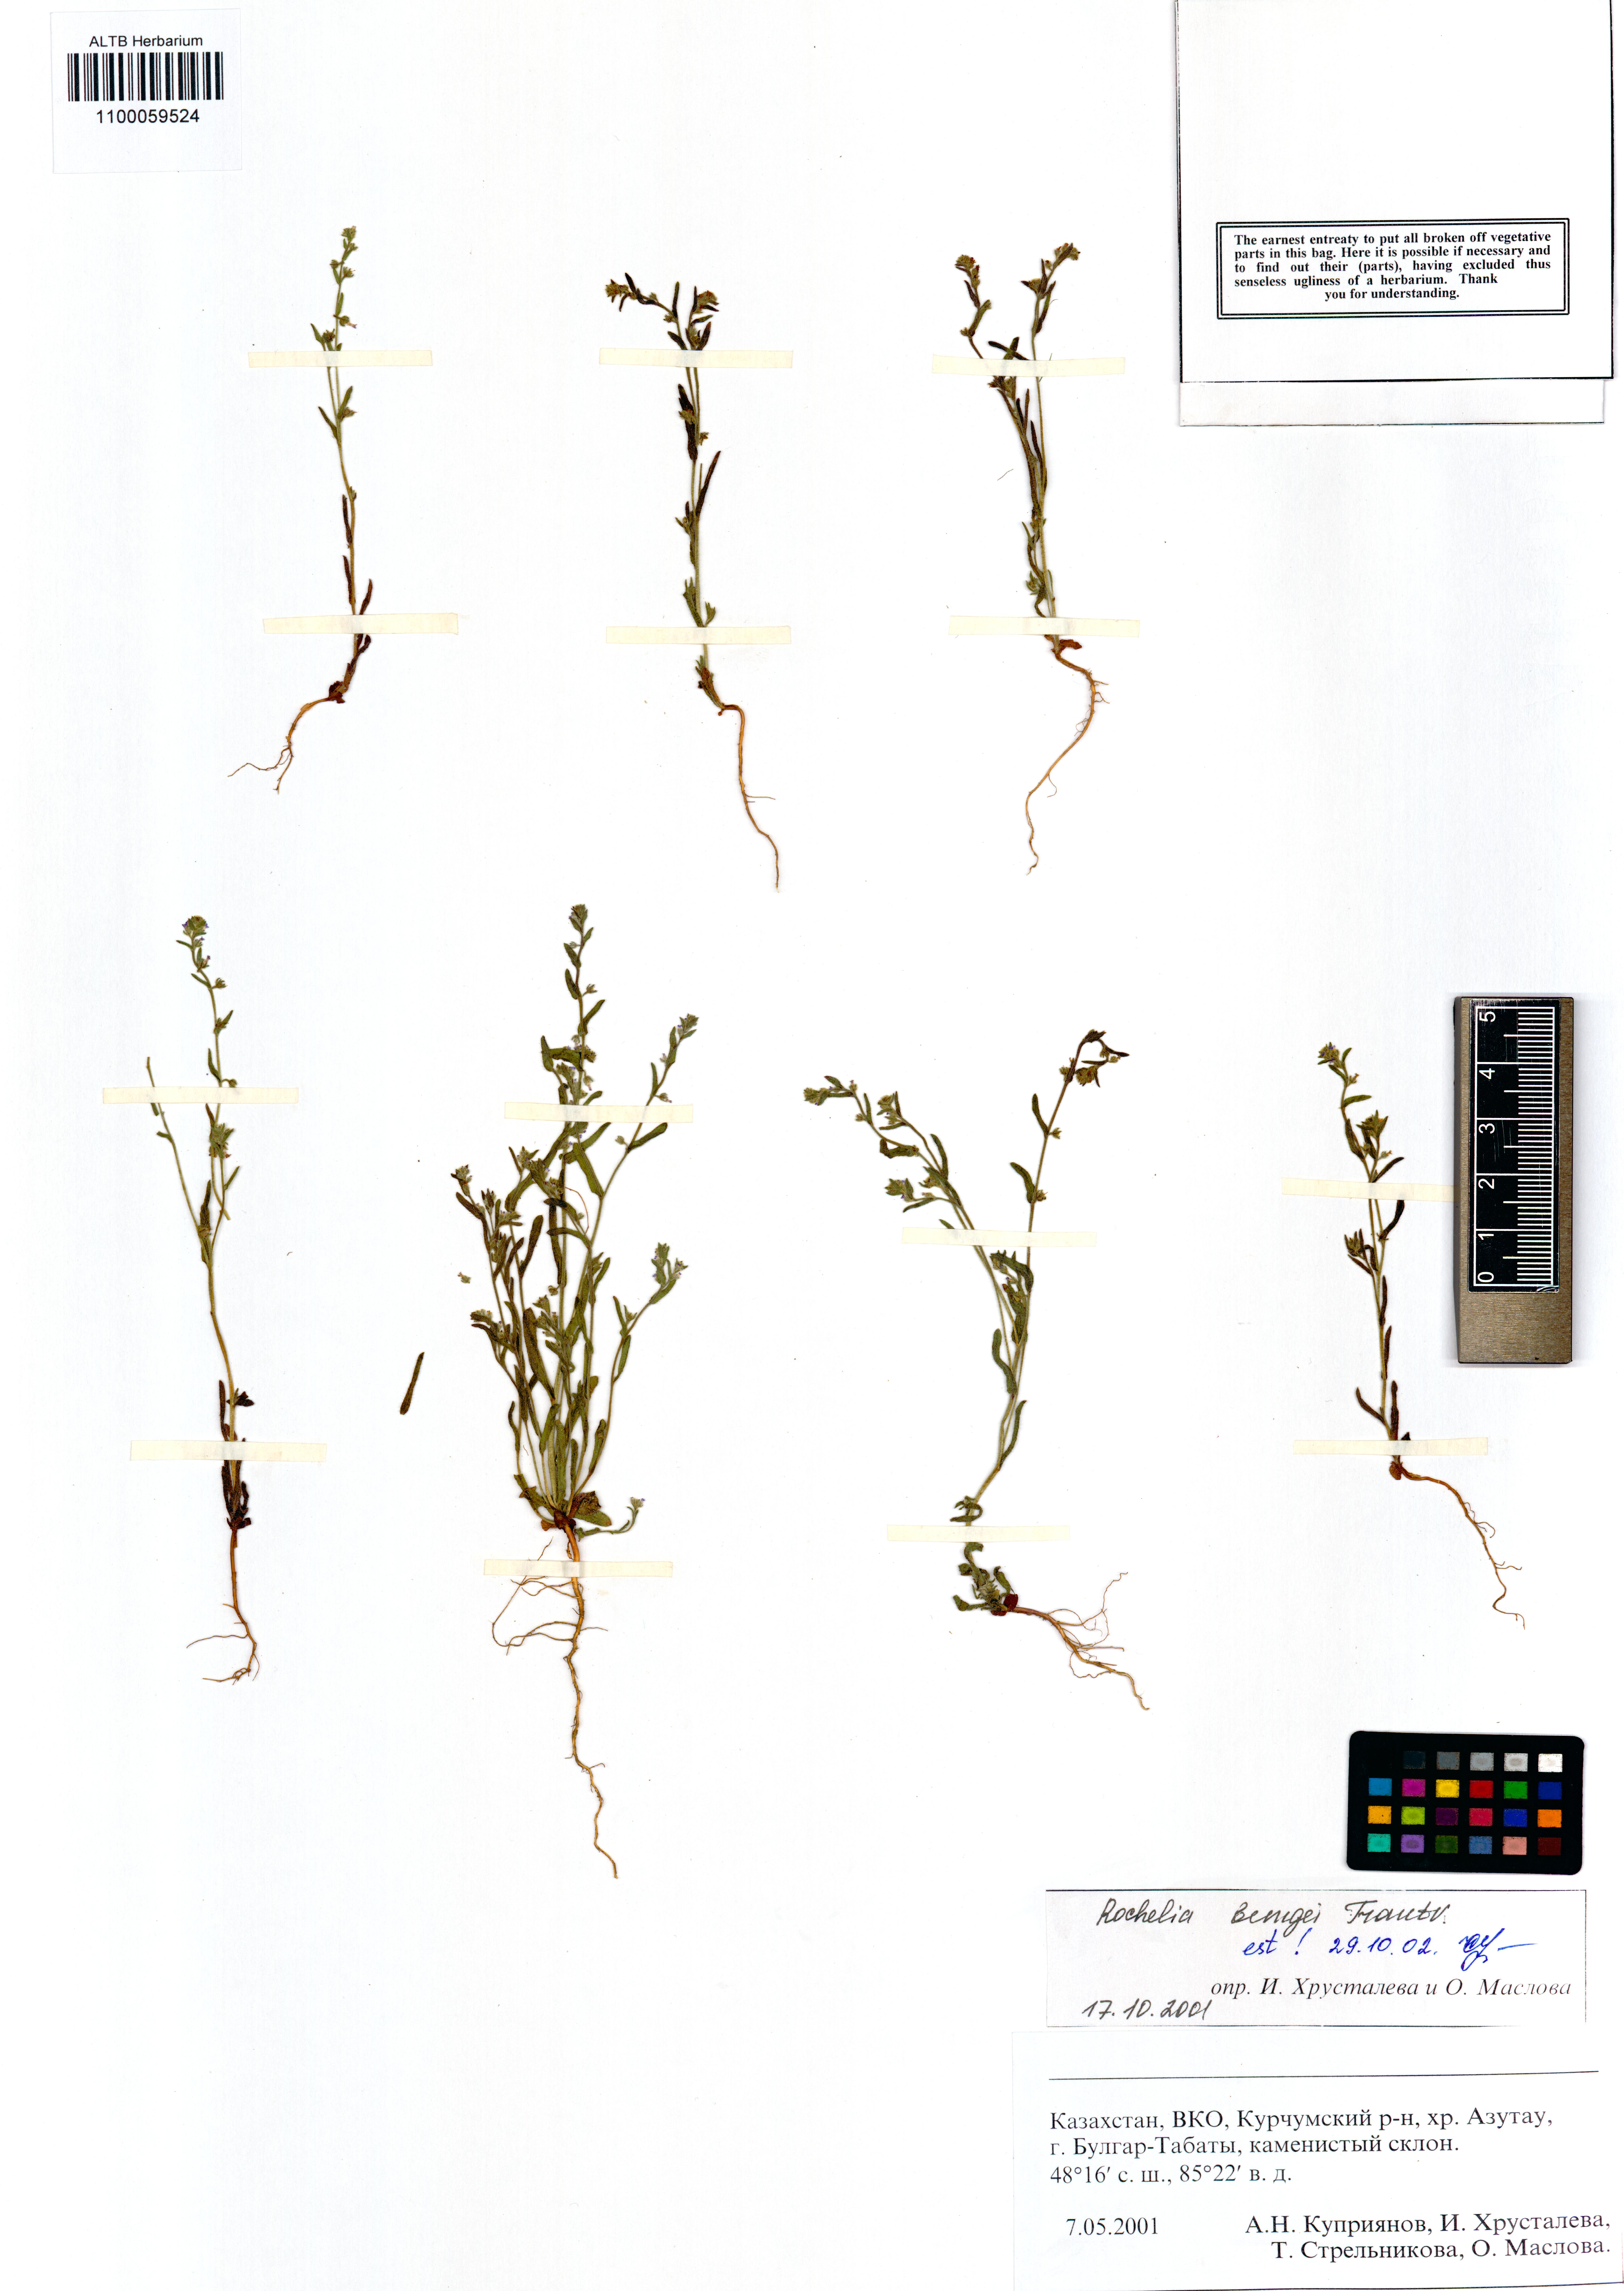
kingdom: Plantae
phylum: Tracheophyta
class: Magnoliopsida
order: Boraginales
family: Boraginaceae
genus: Rochelia
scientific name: Rochelia bungei
